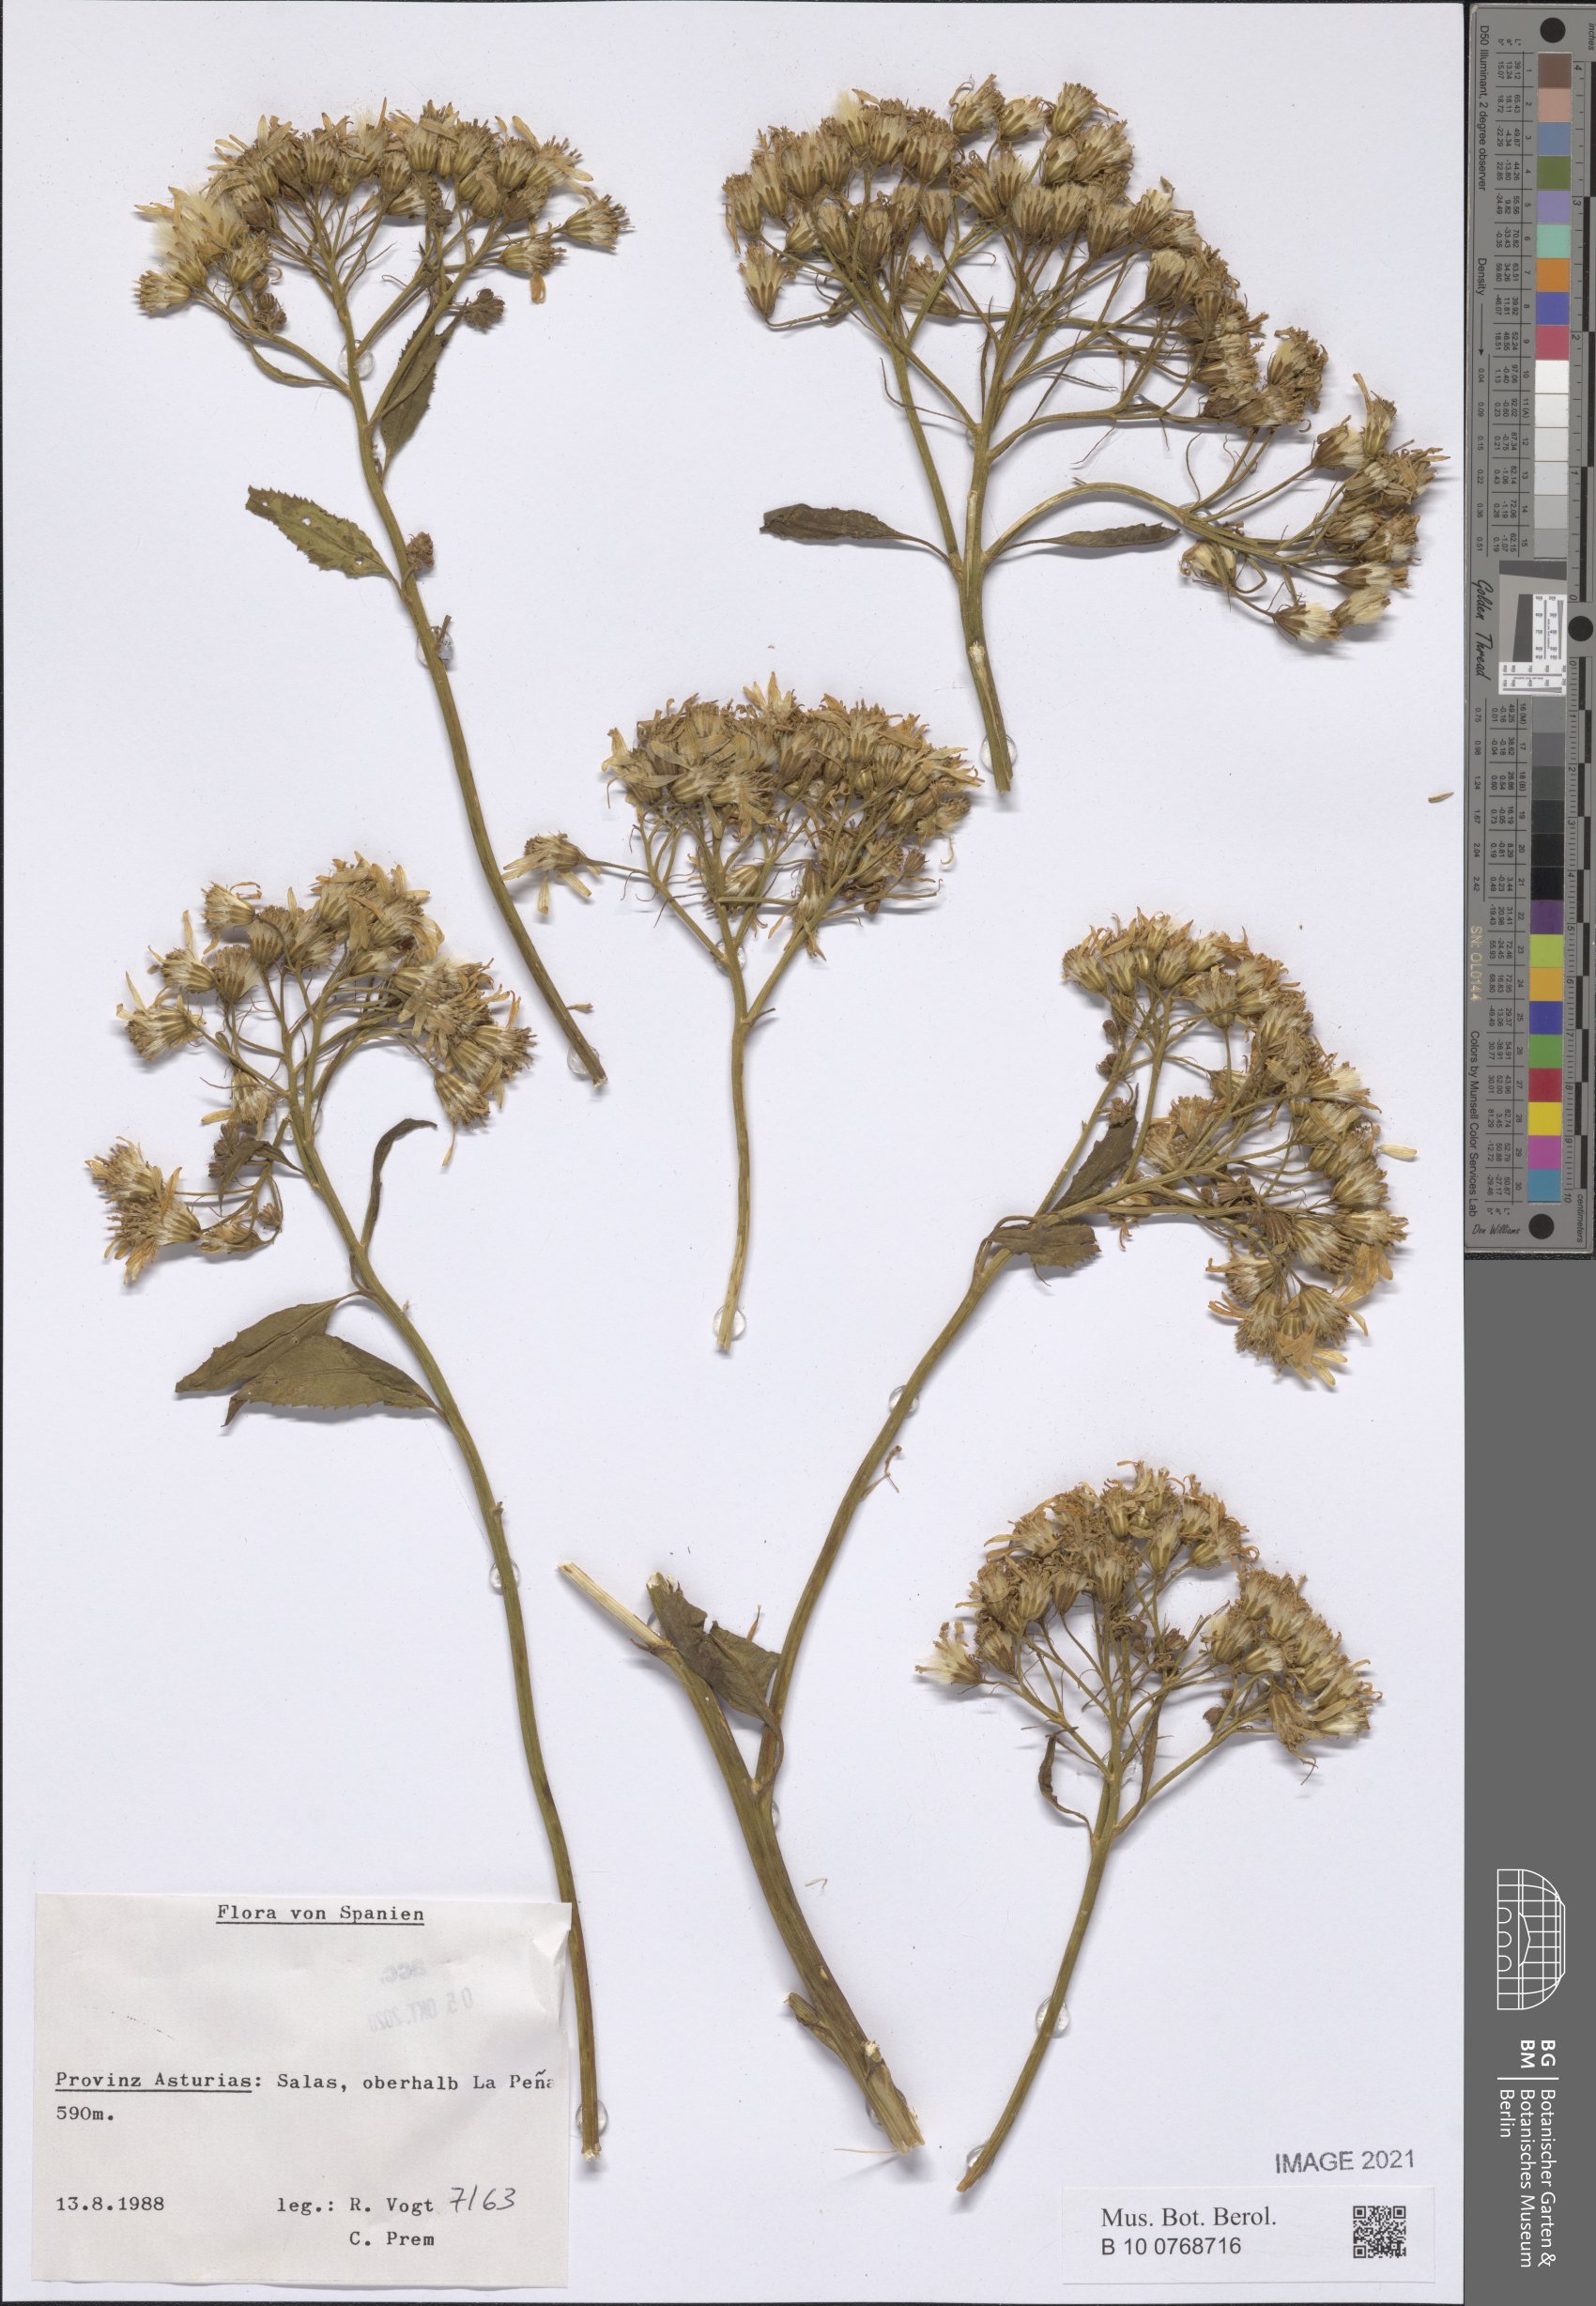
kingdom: Plantae
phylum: Tracheophyta
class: Magnoliopsida
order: Asterales
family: Asteraceae
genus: Senecio
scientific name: Senecio
